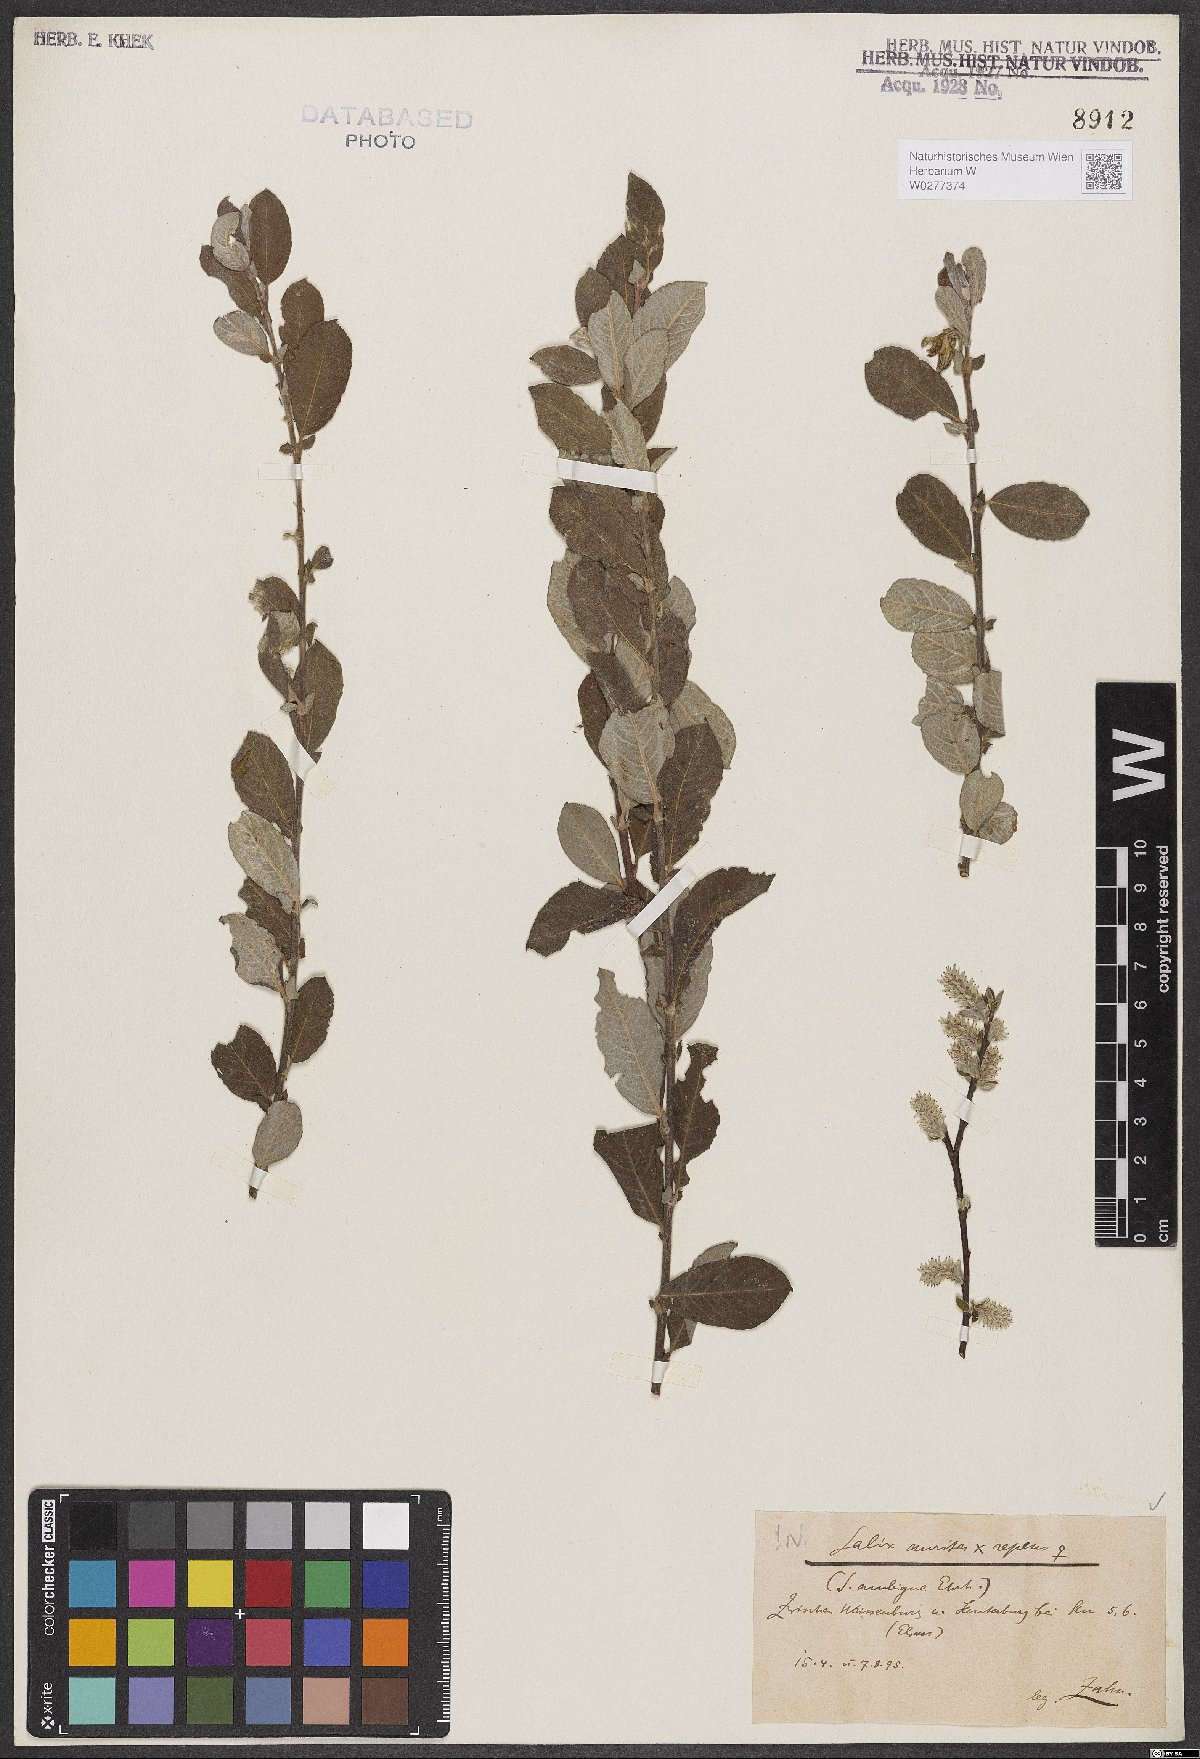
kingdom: Plantae
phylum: Tracheophyta
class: Magnoliopsida
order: Malpighiales
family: Salicaceae
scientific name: Salicaceae
